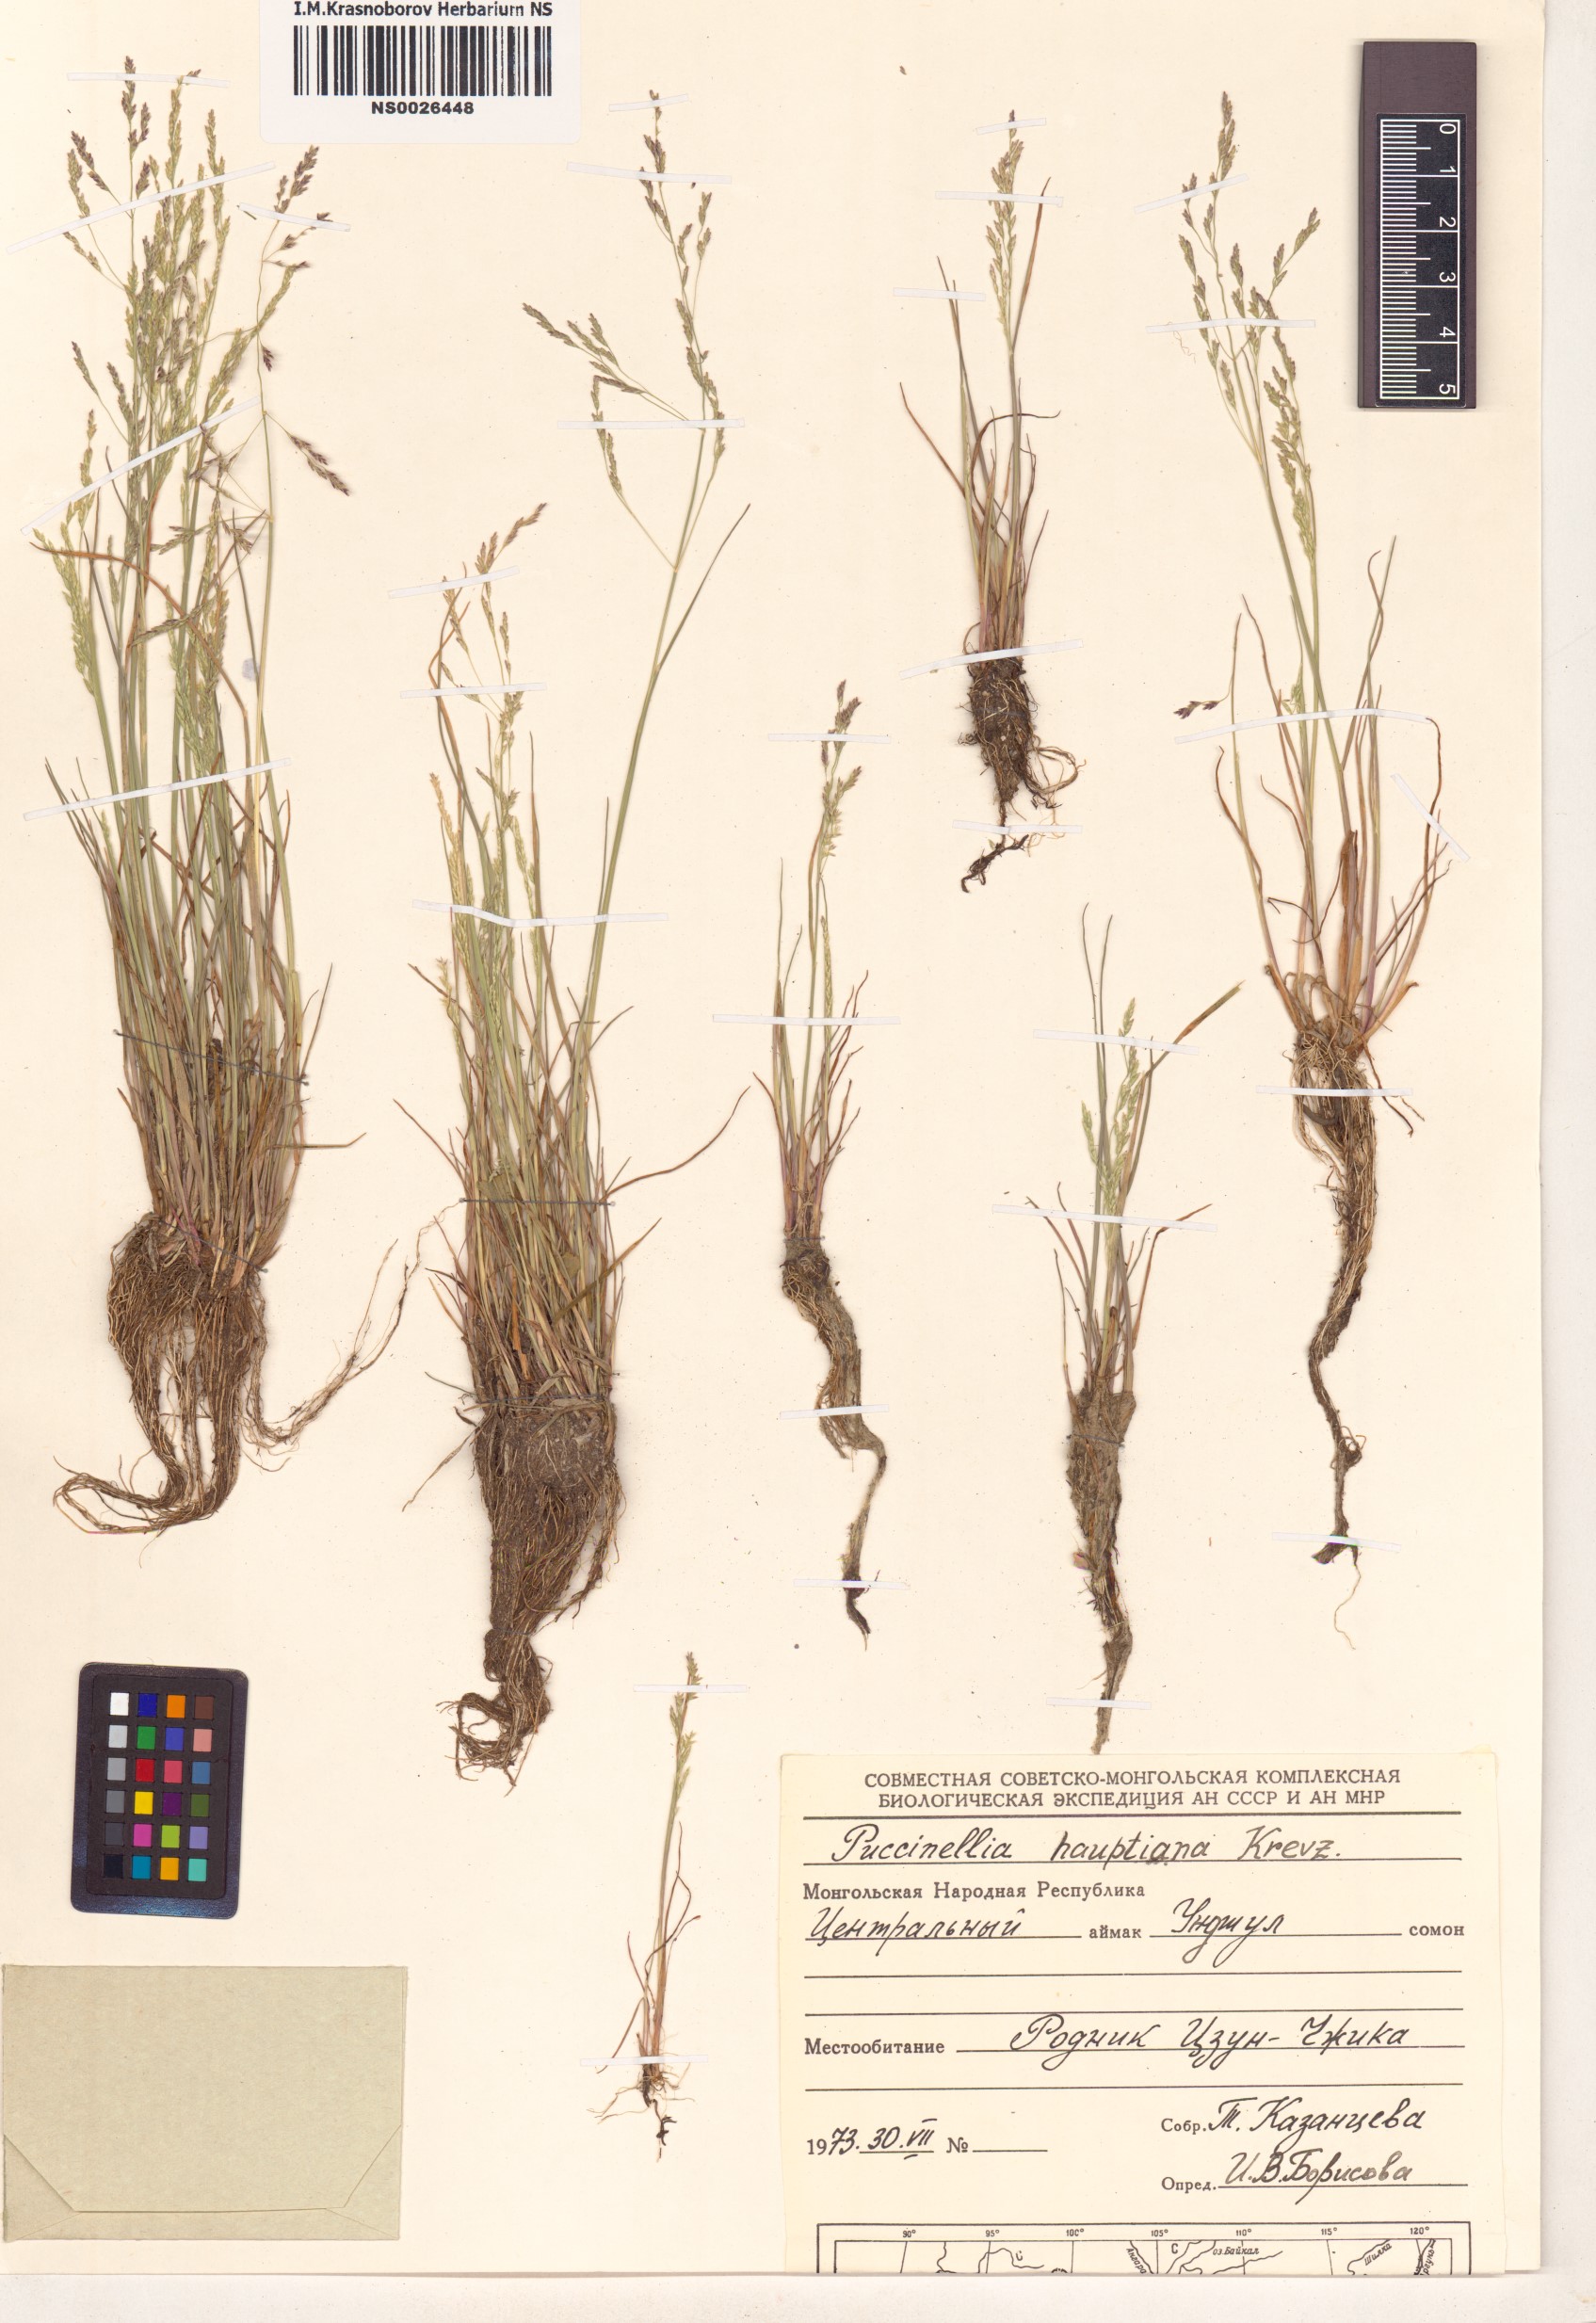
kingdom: Plantae
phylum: Tracheophyta
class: Liliopsida
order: Poales
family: Poaceae
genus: Puccinellia
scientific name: Puccinellia hauptiana
